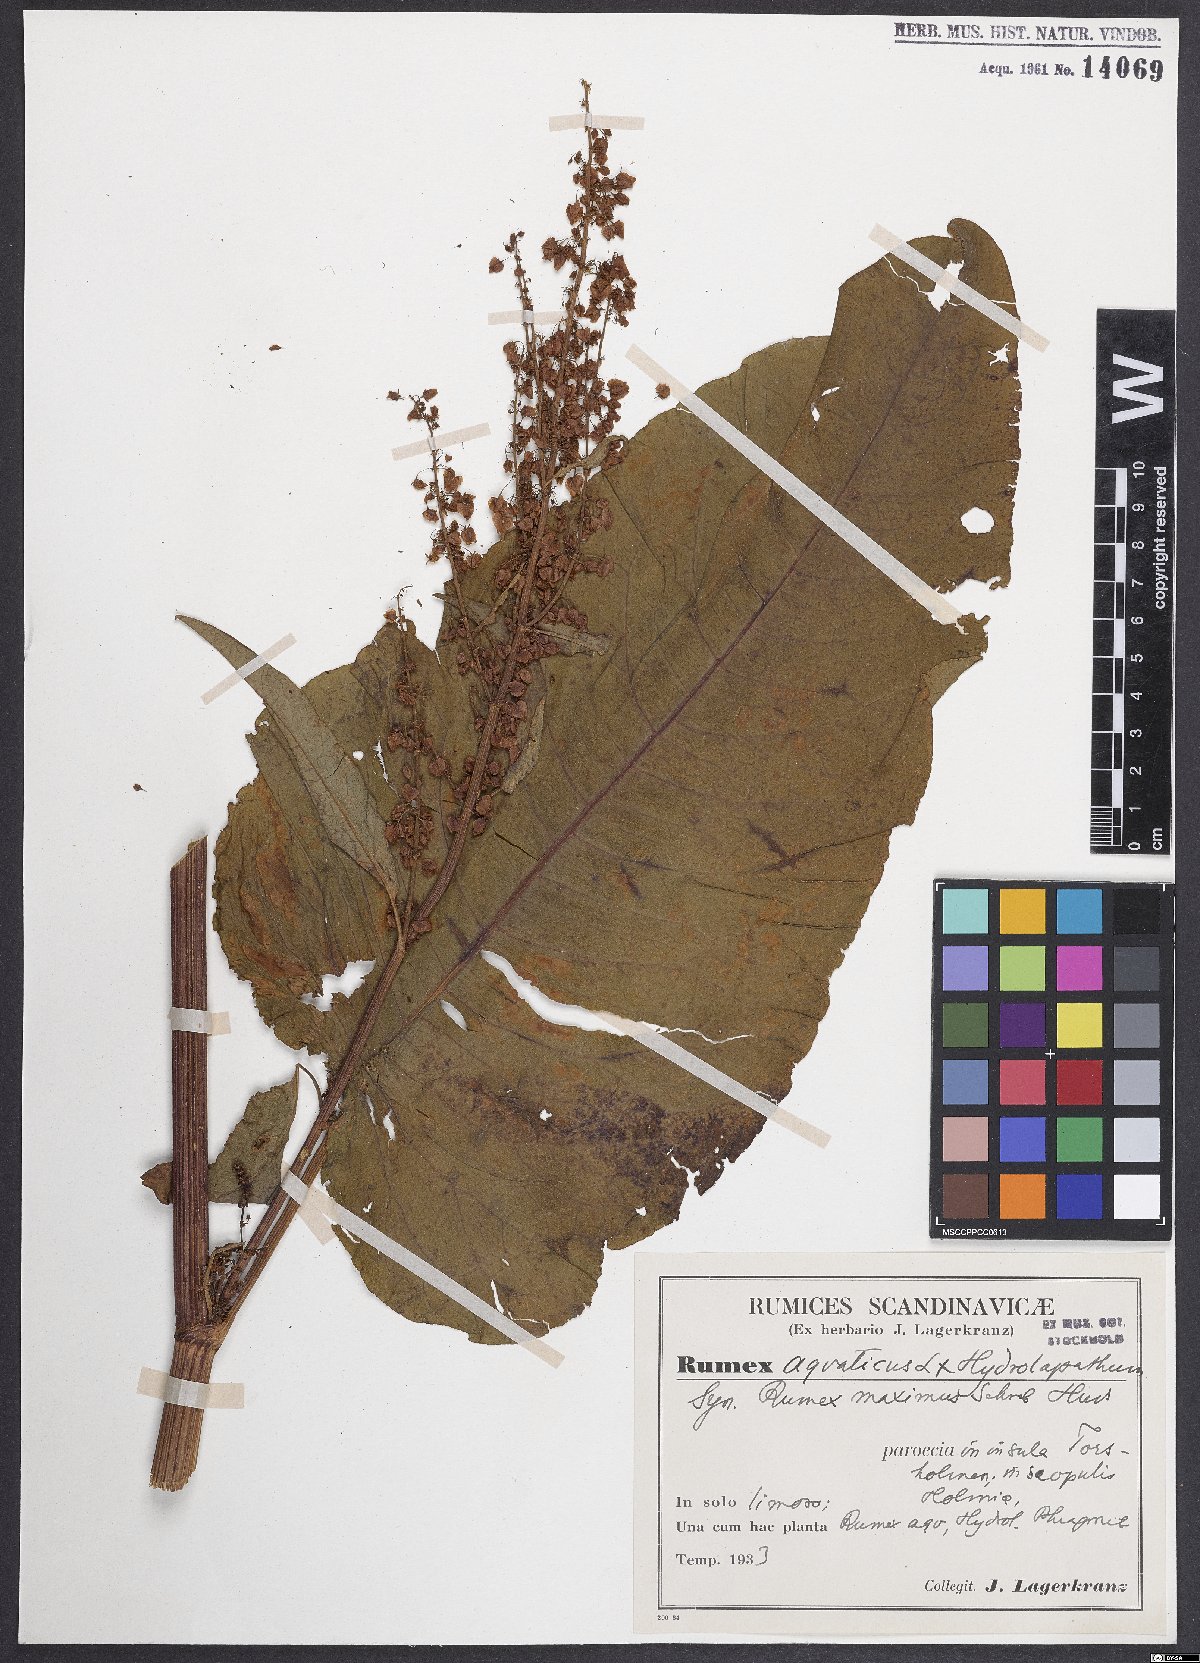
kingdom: Plantae
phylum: Tracheophyta
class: Magnoliopsida
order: Caryophyllales
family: Polygonaceae
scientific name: Polygonaceae
